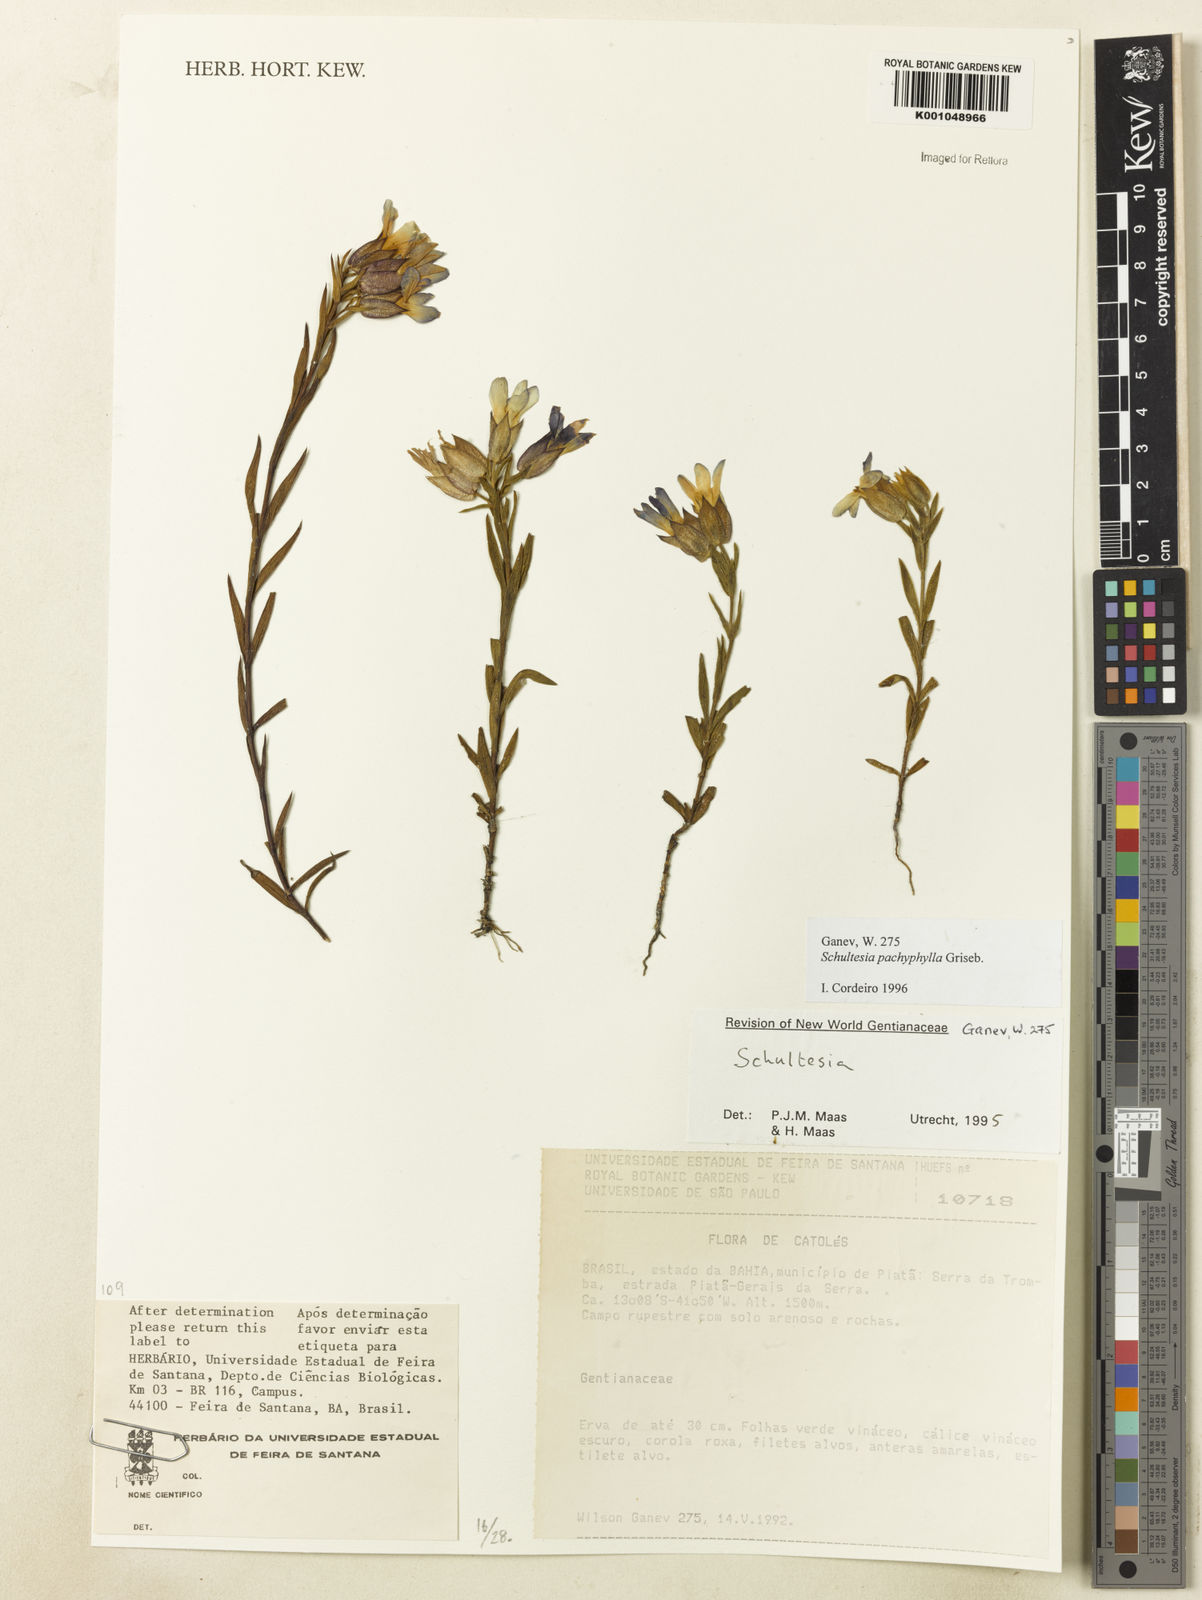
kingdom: Plantae
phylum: Tracheophyta
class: Magnoliopsida
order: Gentianales
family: Gentianaceae
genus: Schultesia
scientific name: Schultesia pachyphylla
